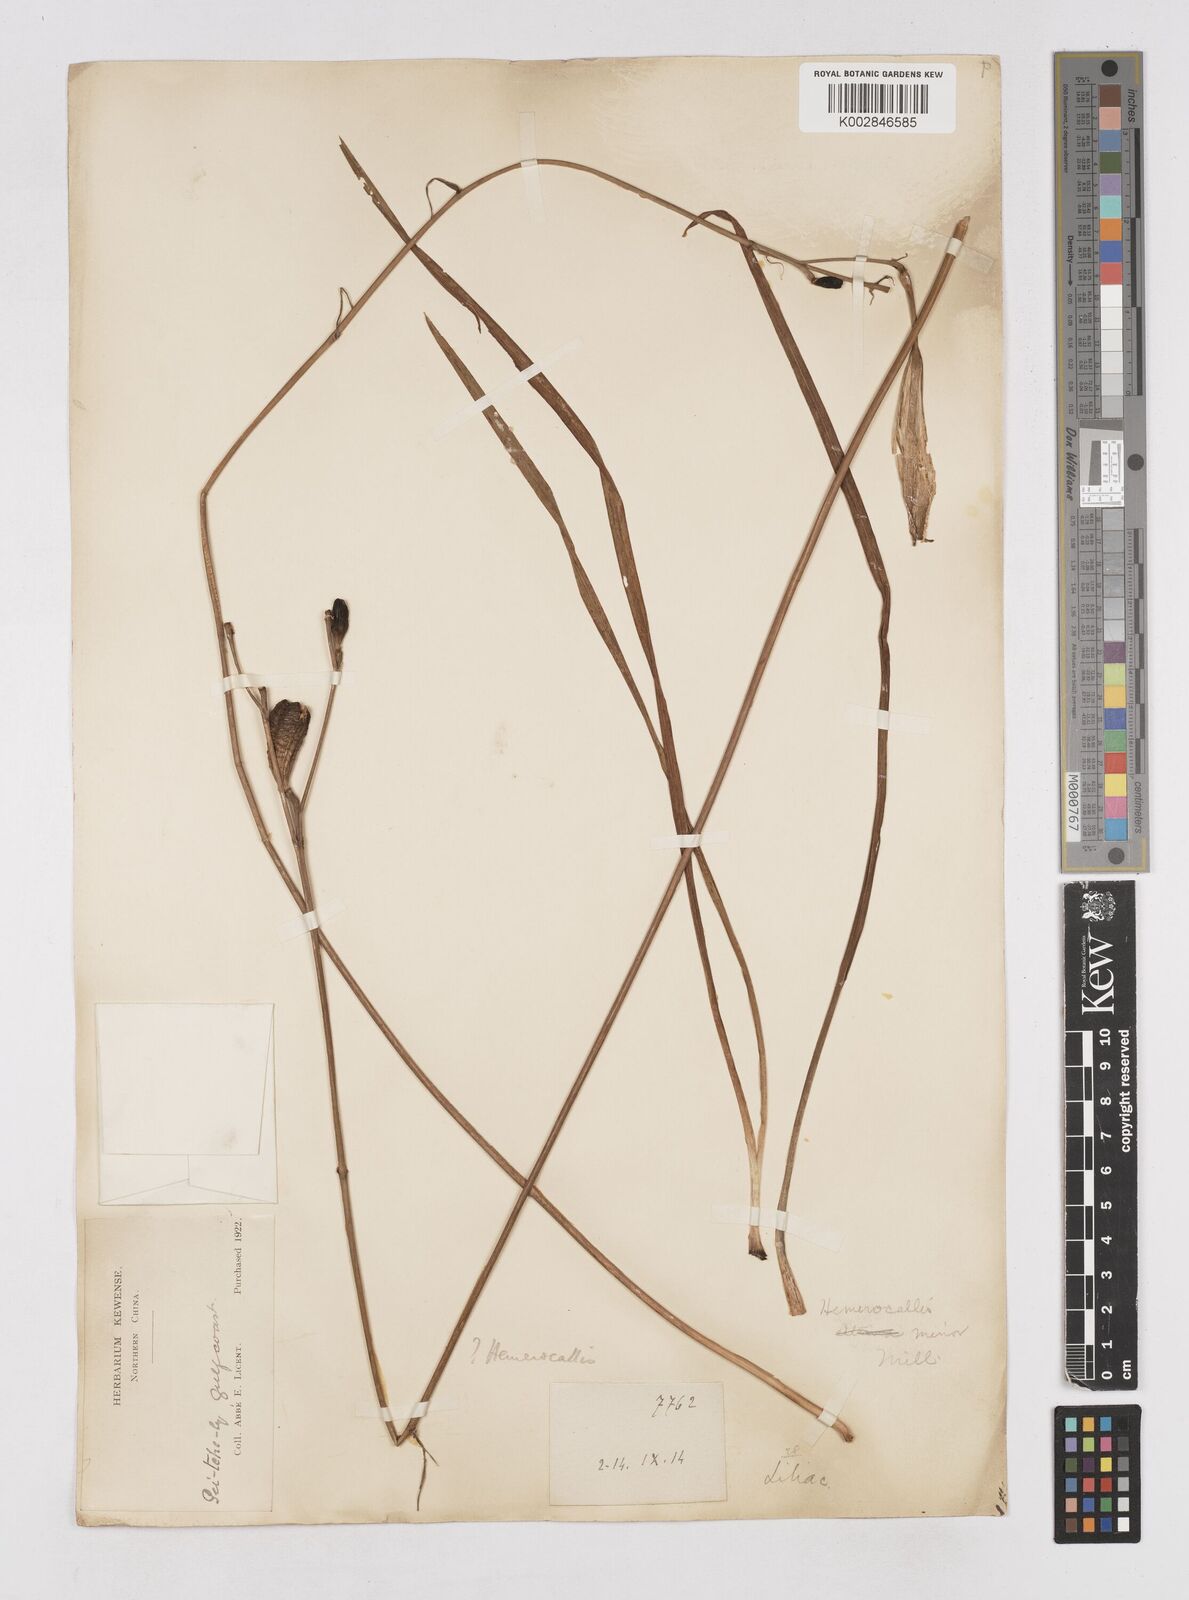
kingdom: Plantae
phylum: Tracheophyta
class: Liliopsida
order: Asparagales
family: Asphodelaceae
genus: Hemerocallis
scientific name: Hemerocallis minor
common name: Small daylily
